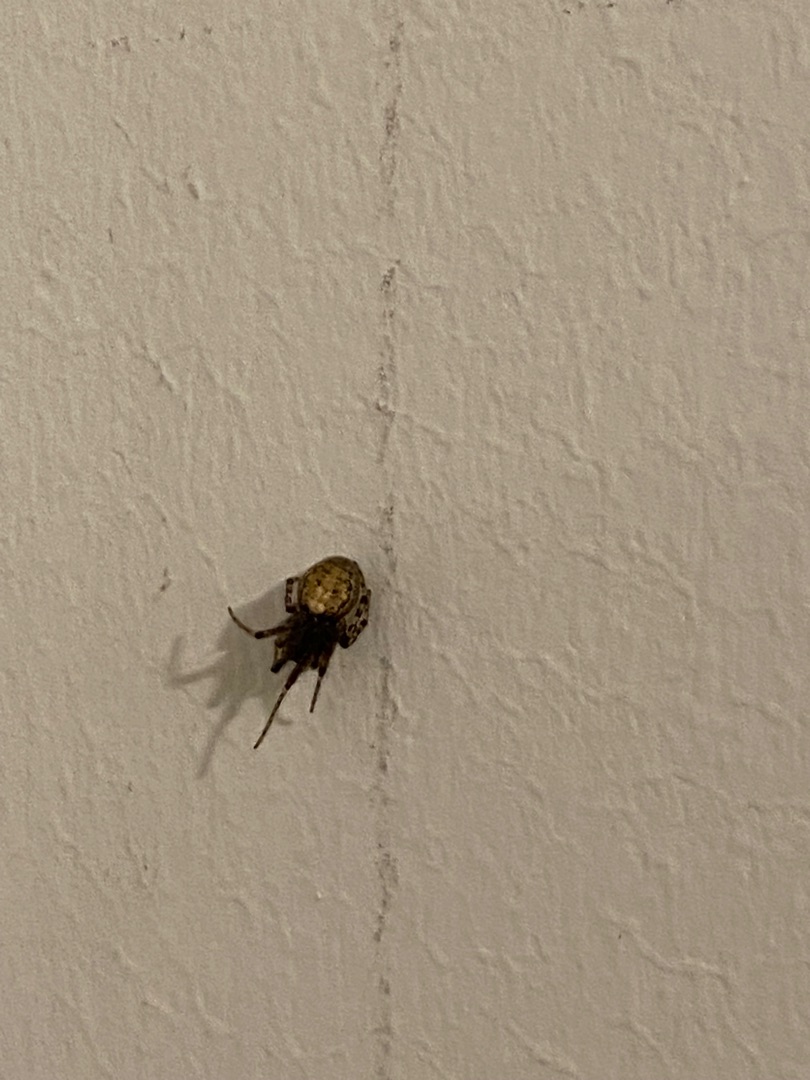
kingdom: Animalia
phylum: Arthropoda
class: Arachnida
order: Araneae
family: Araneidae
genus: Zygiella
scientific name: Zygiella x-notata
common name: Grå sektoredderkop
